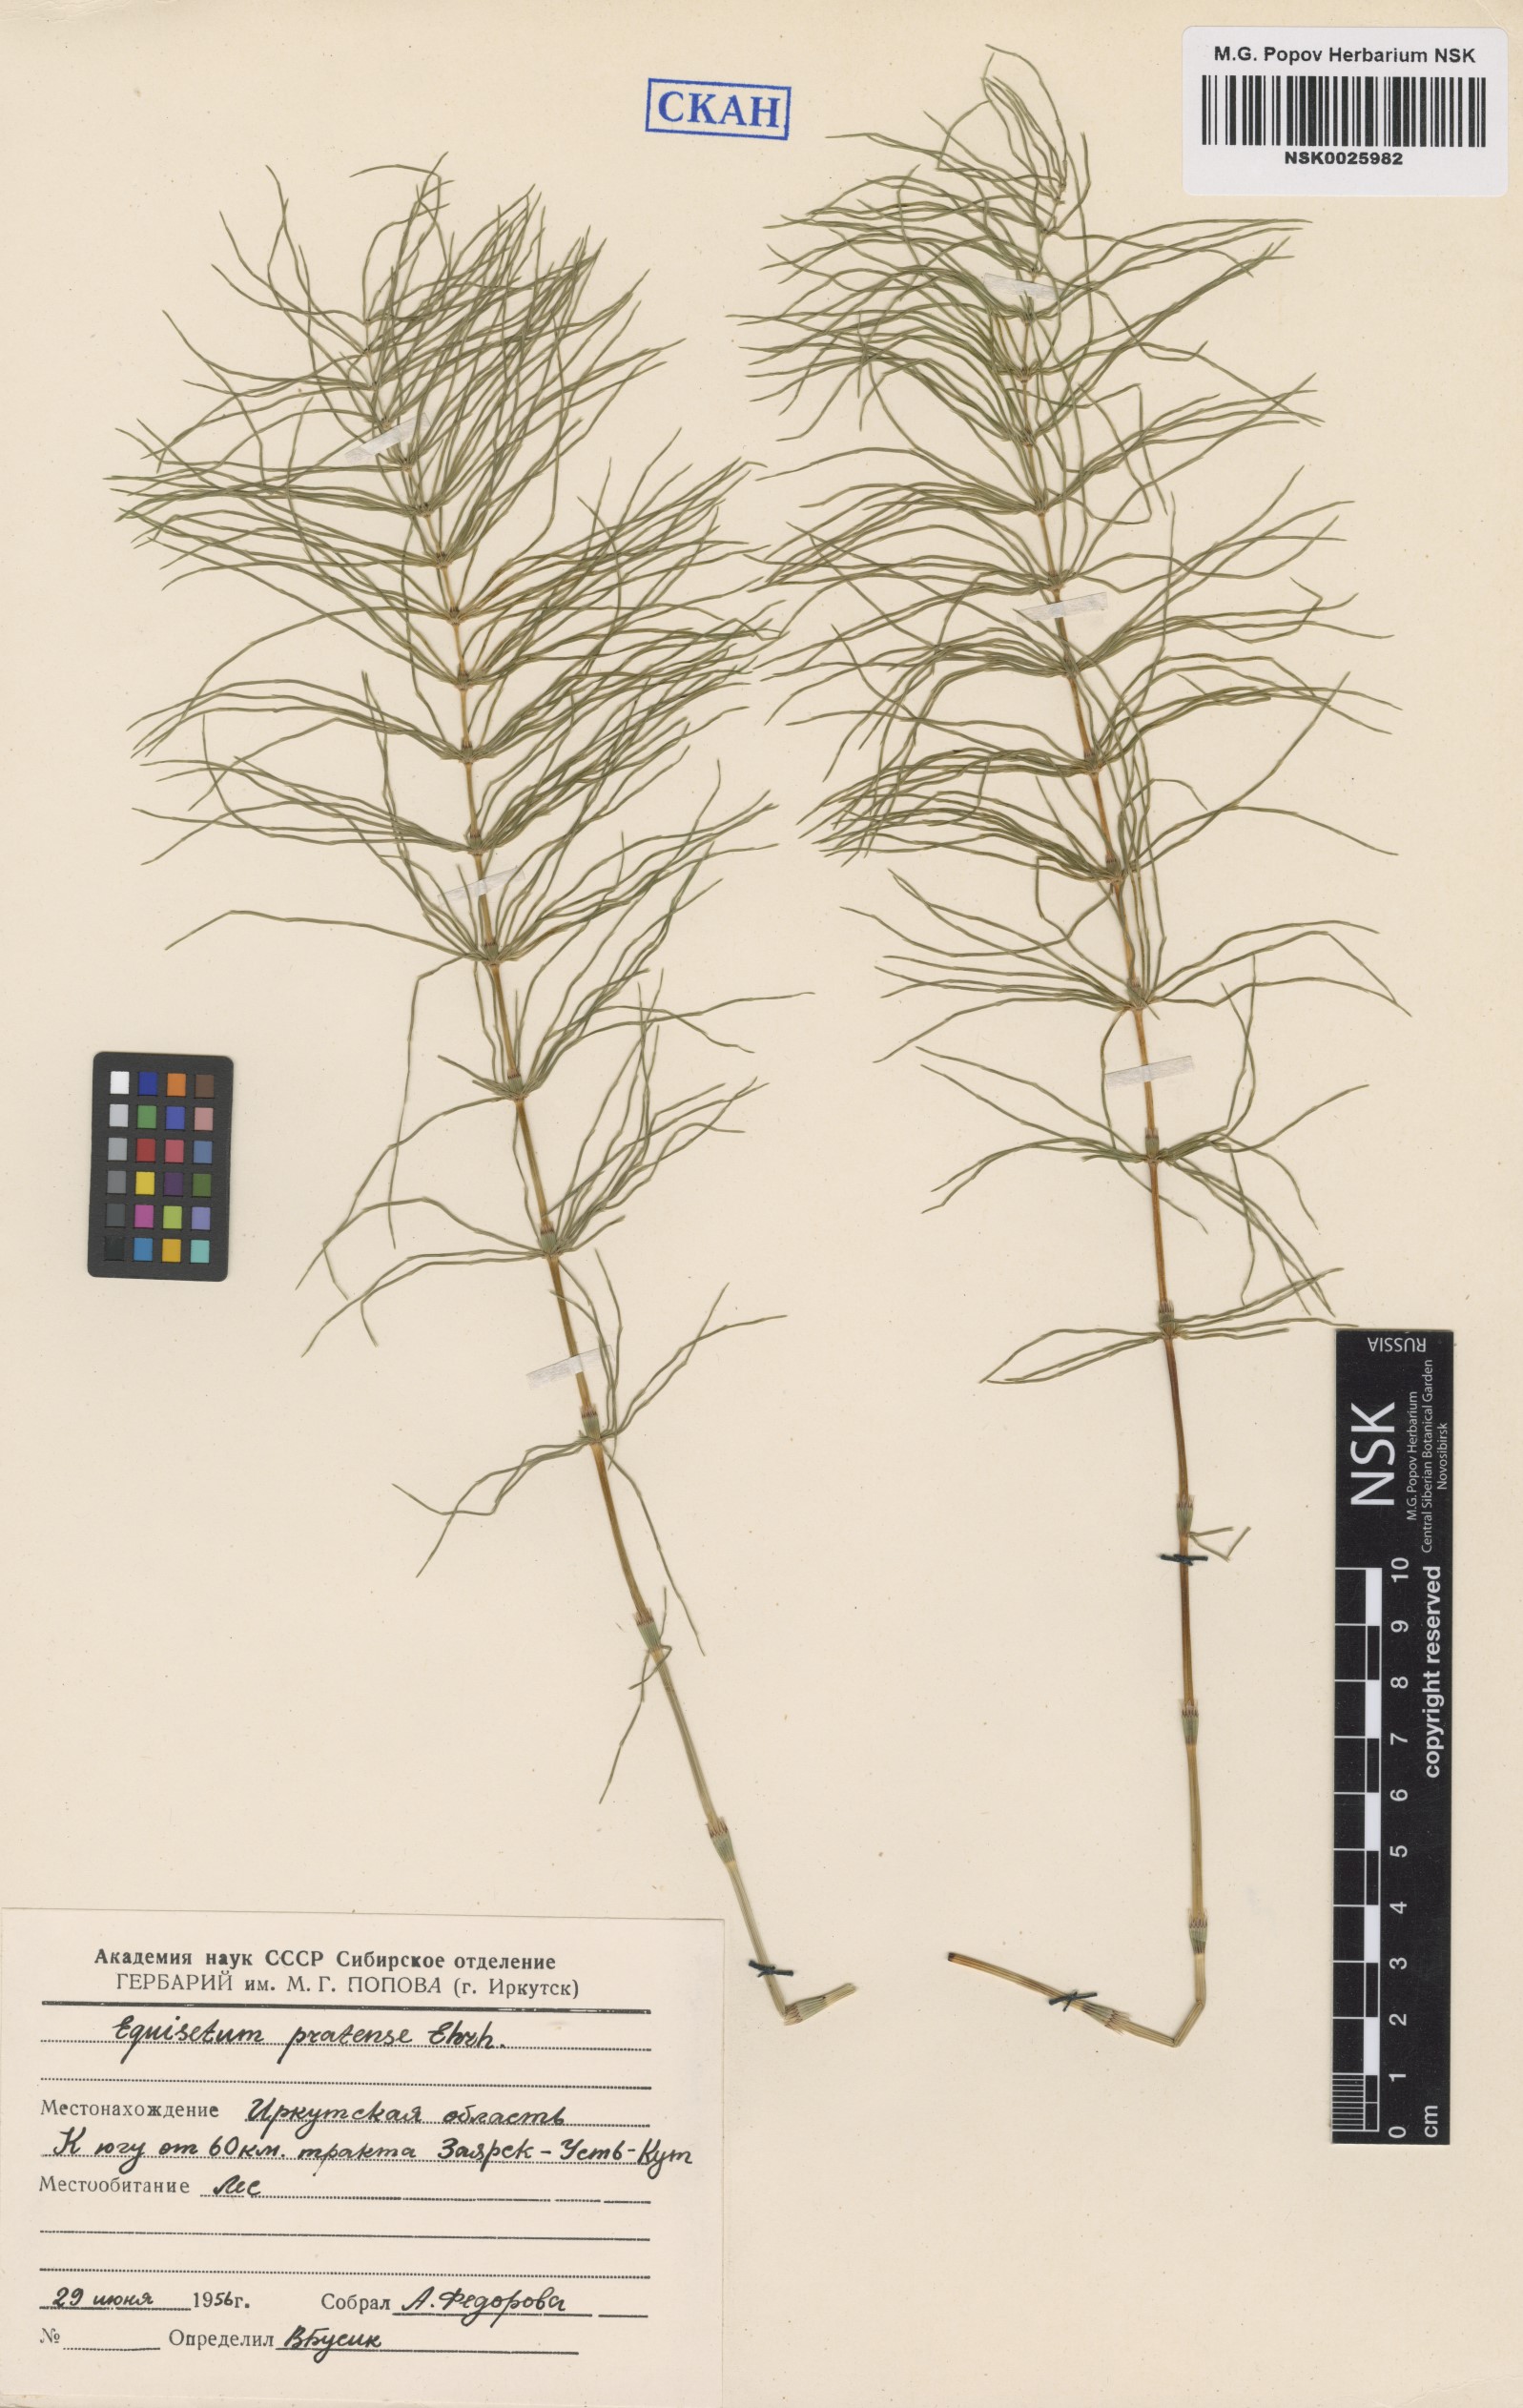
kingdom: Plantae
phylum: Tracheophyta
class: Polypodiopsida
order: Equisetales
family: Equisetaceae
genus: Equisetum
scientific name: Equisetum pratense
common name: Meadow horsetail
